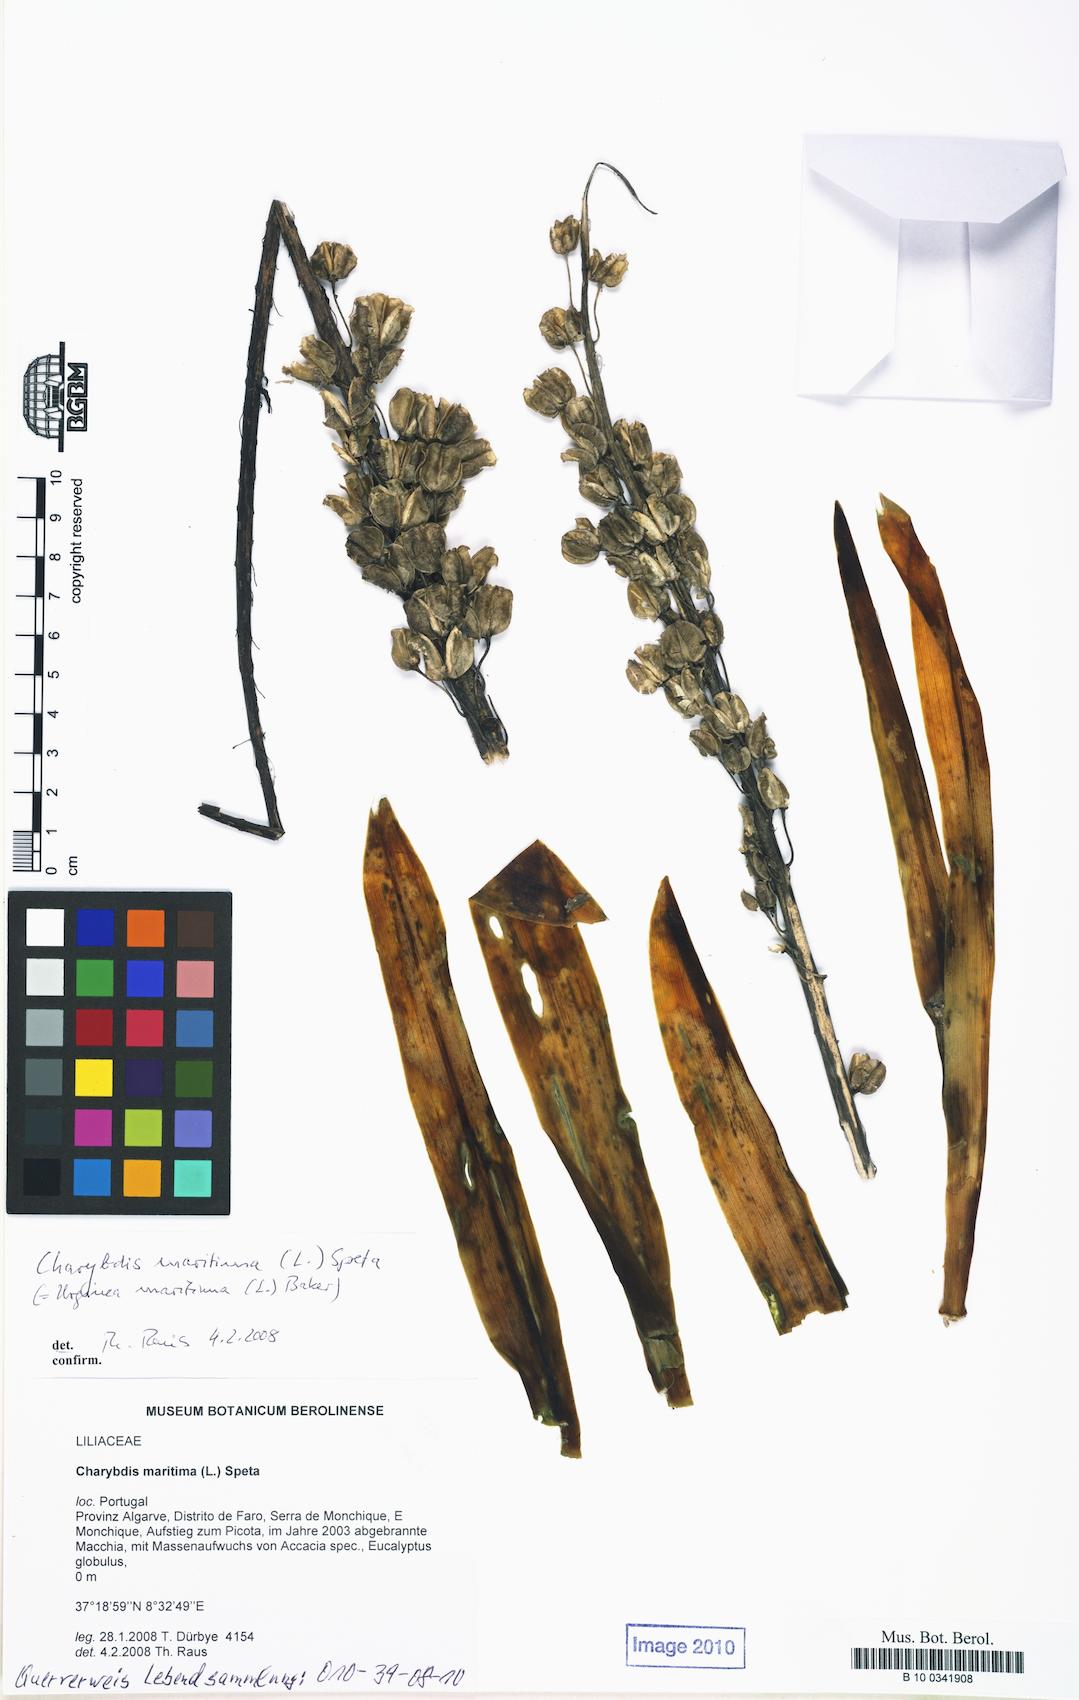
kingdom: Plantae
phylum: Tracheophyta
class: Liliopsida
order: Asparagales
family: Asparagaceae
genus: Drimia
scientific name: Drimia maritima
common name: Maritime squill
